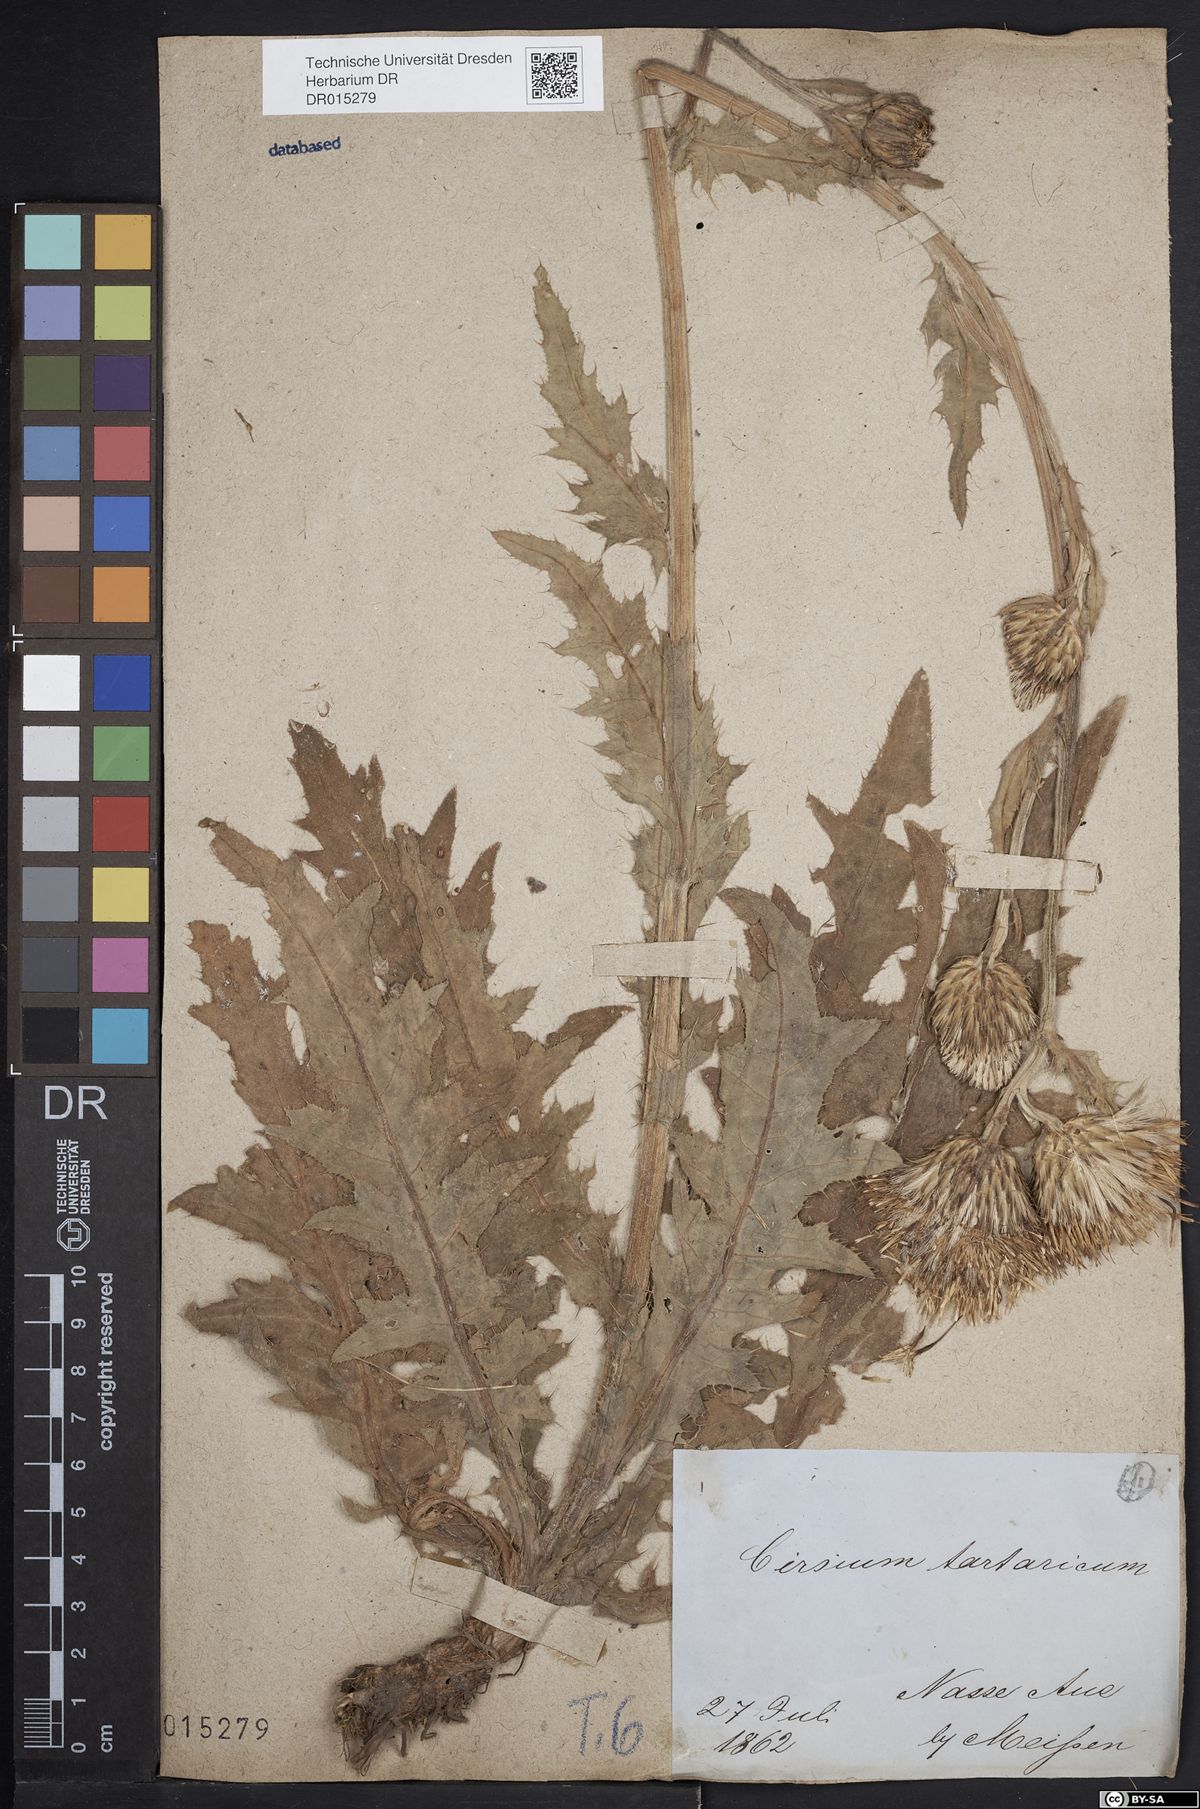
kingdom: Plantae
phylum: Tracheophyta
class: Magnoliopsida
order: Asterales
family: Asteraceae
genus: Cirsium
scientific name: Cirsium tataricum
